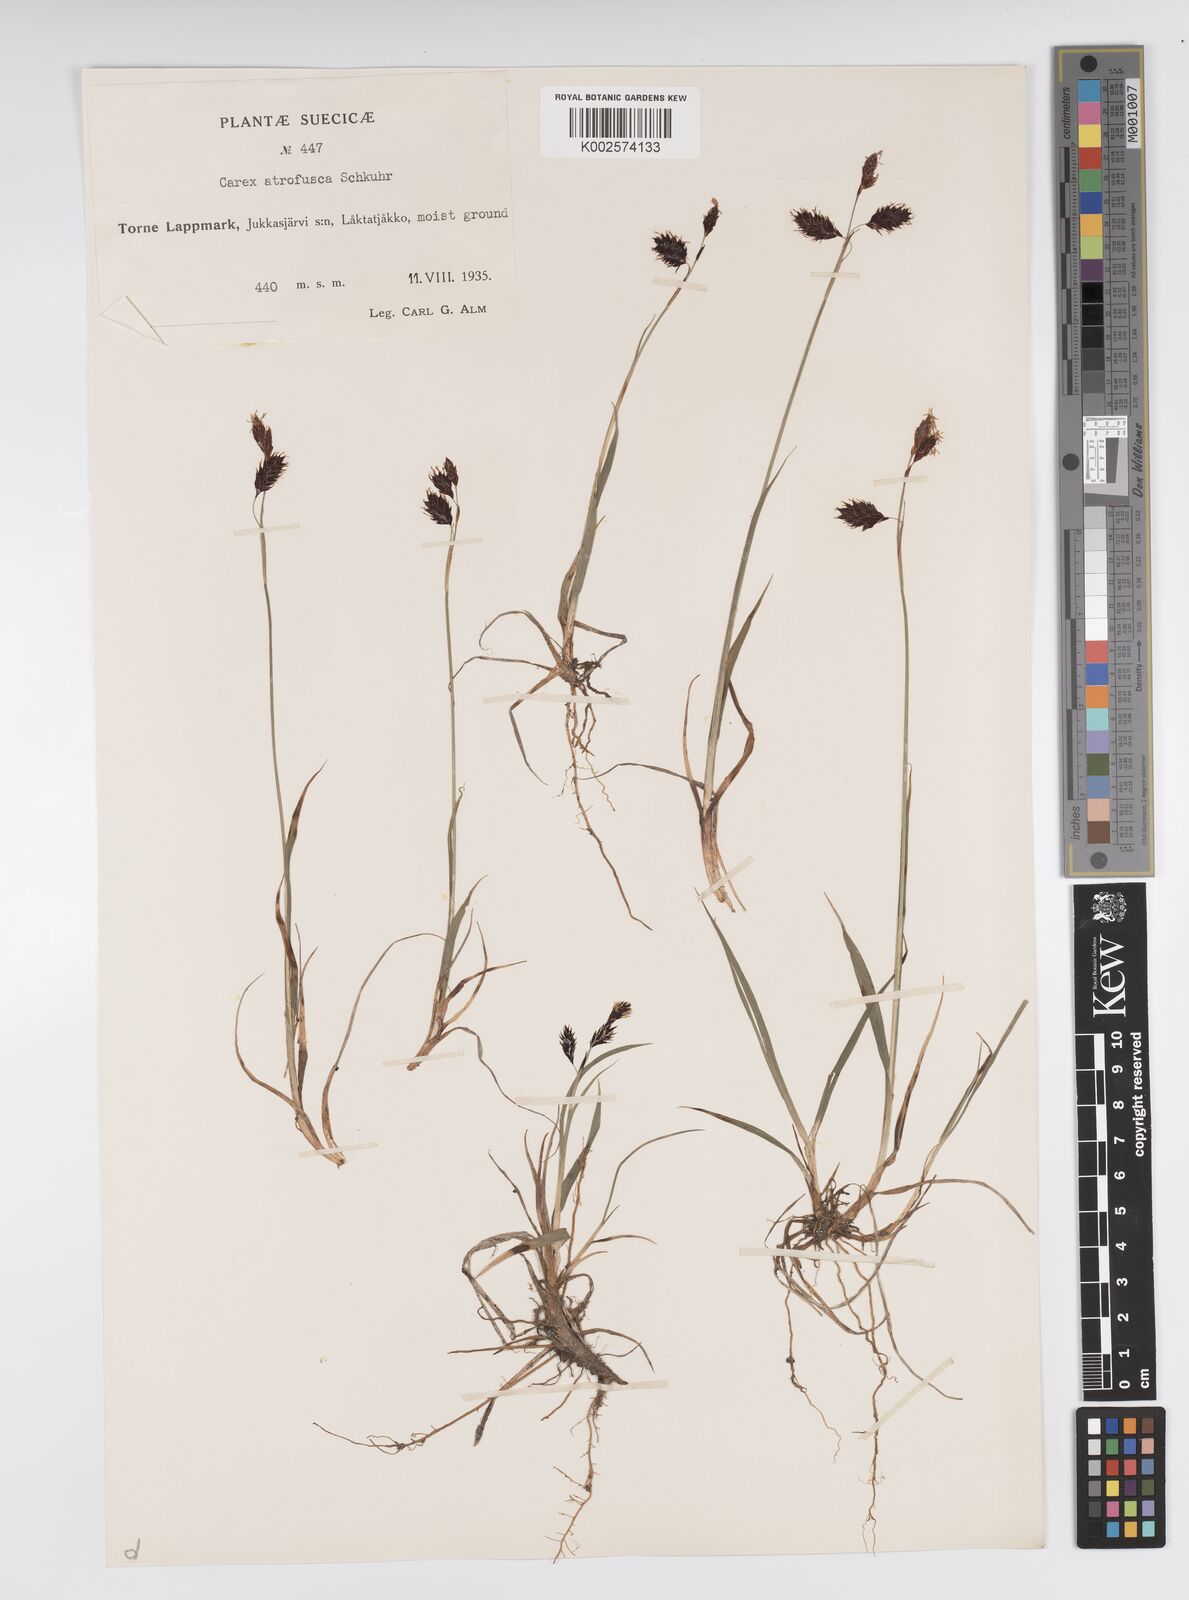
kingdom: Plantae
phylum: Tracheophyta
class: Liliopsida
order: Poales
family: Cyperaceae
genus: Carex
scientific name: Carex atrofusca
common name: Scorched alpine-sedge
